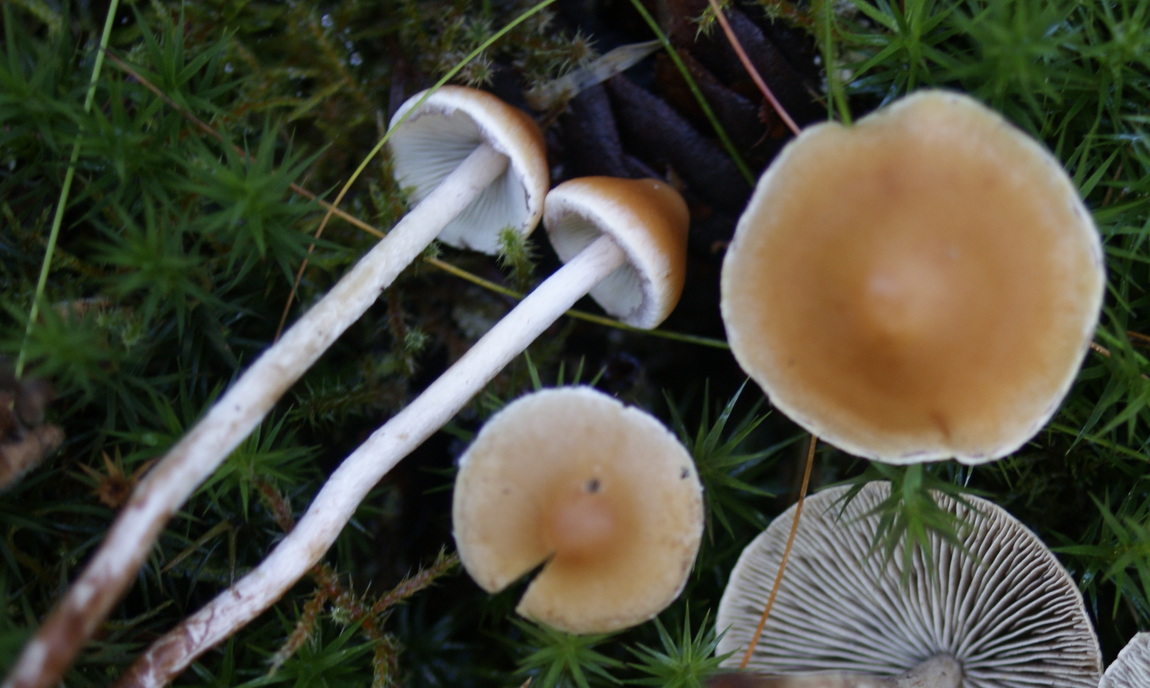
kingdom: Fungi
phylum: Basidiomycota
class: Agaricomycetes
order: Agaricales
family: Strophariaceae
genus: Hypholoma
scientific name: Hypholoma marginatum
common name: enlig svovlhat
